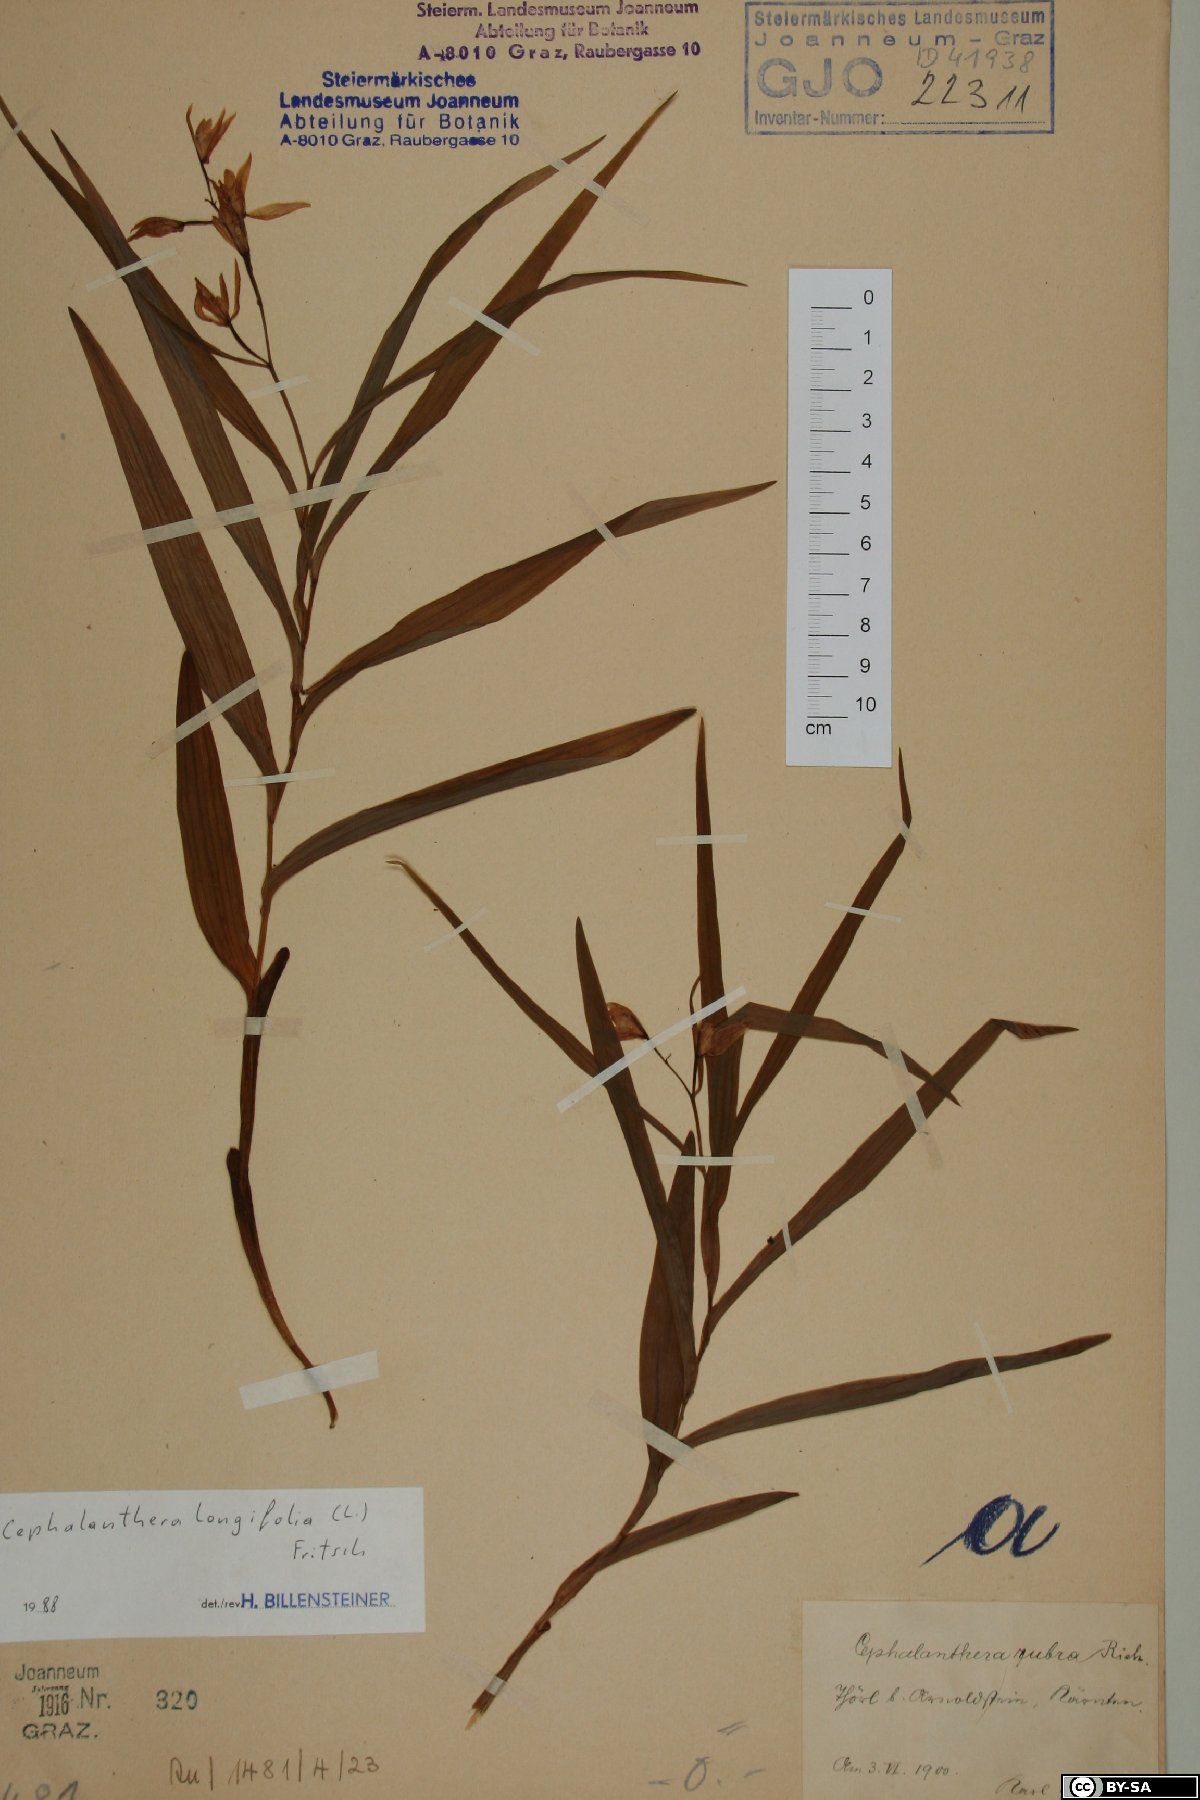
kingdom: Plantae
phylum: Tracheophyta
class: Liliopsida
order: Asparagales
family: Orchidaceae
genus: Cephalanthera
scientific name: Cephalanthera longifolia
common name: Narrow-leaved helleborine
